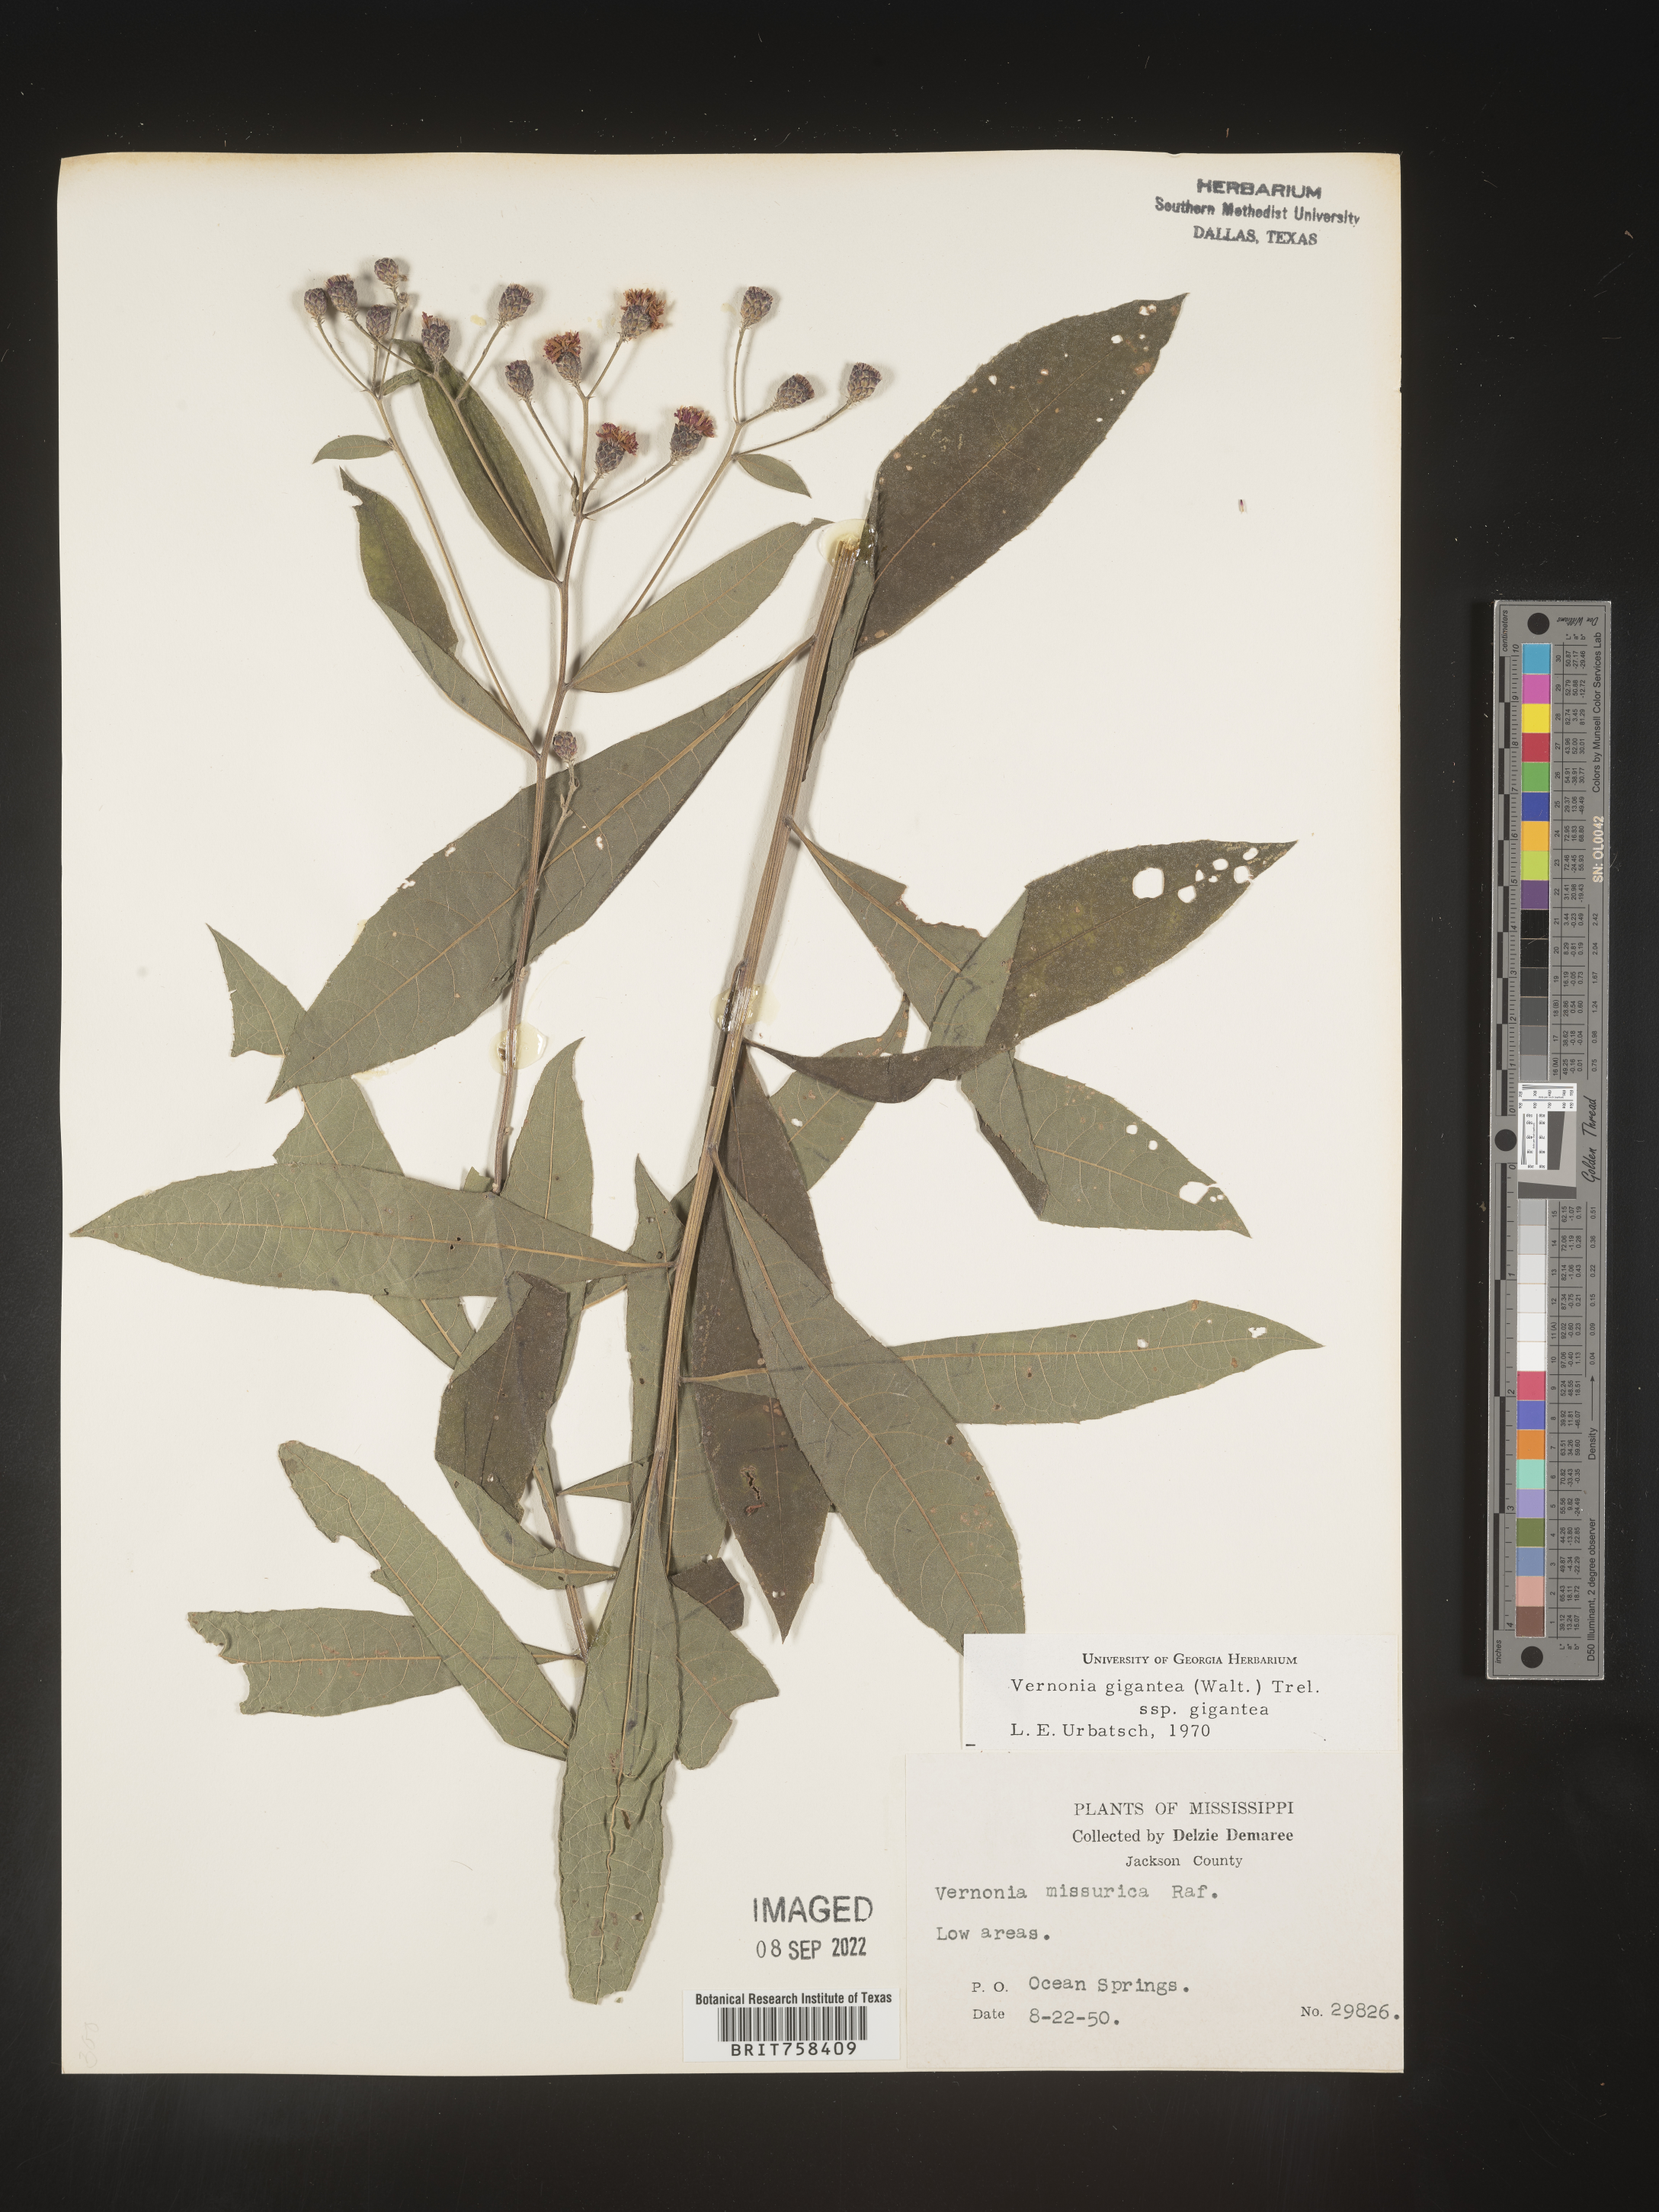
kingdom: Plantae
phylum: Tracheophyta
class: Magnoliopsida
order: Asterales
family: Asteraceae
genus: Vernonia
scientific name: Vernonia gigantea
